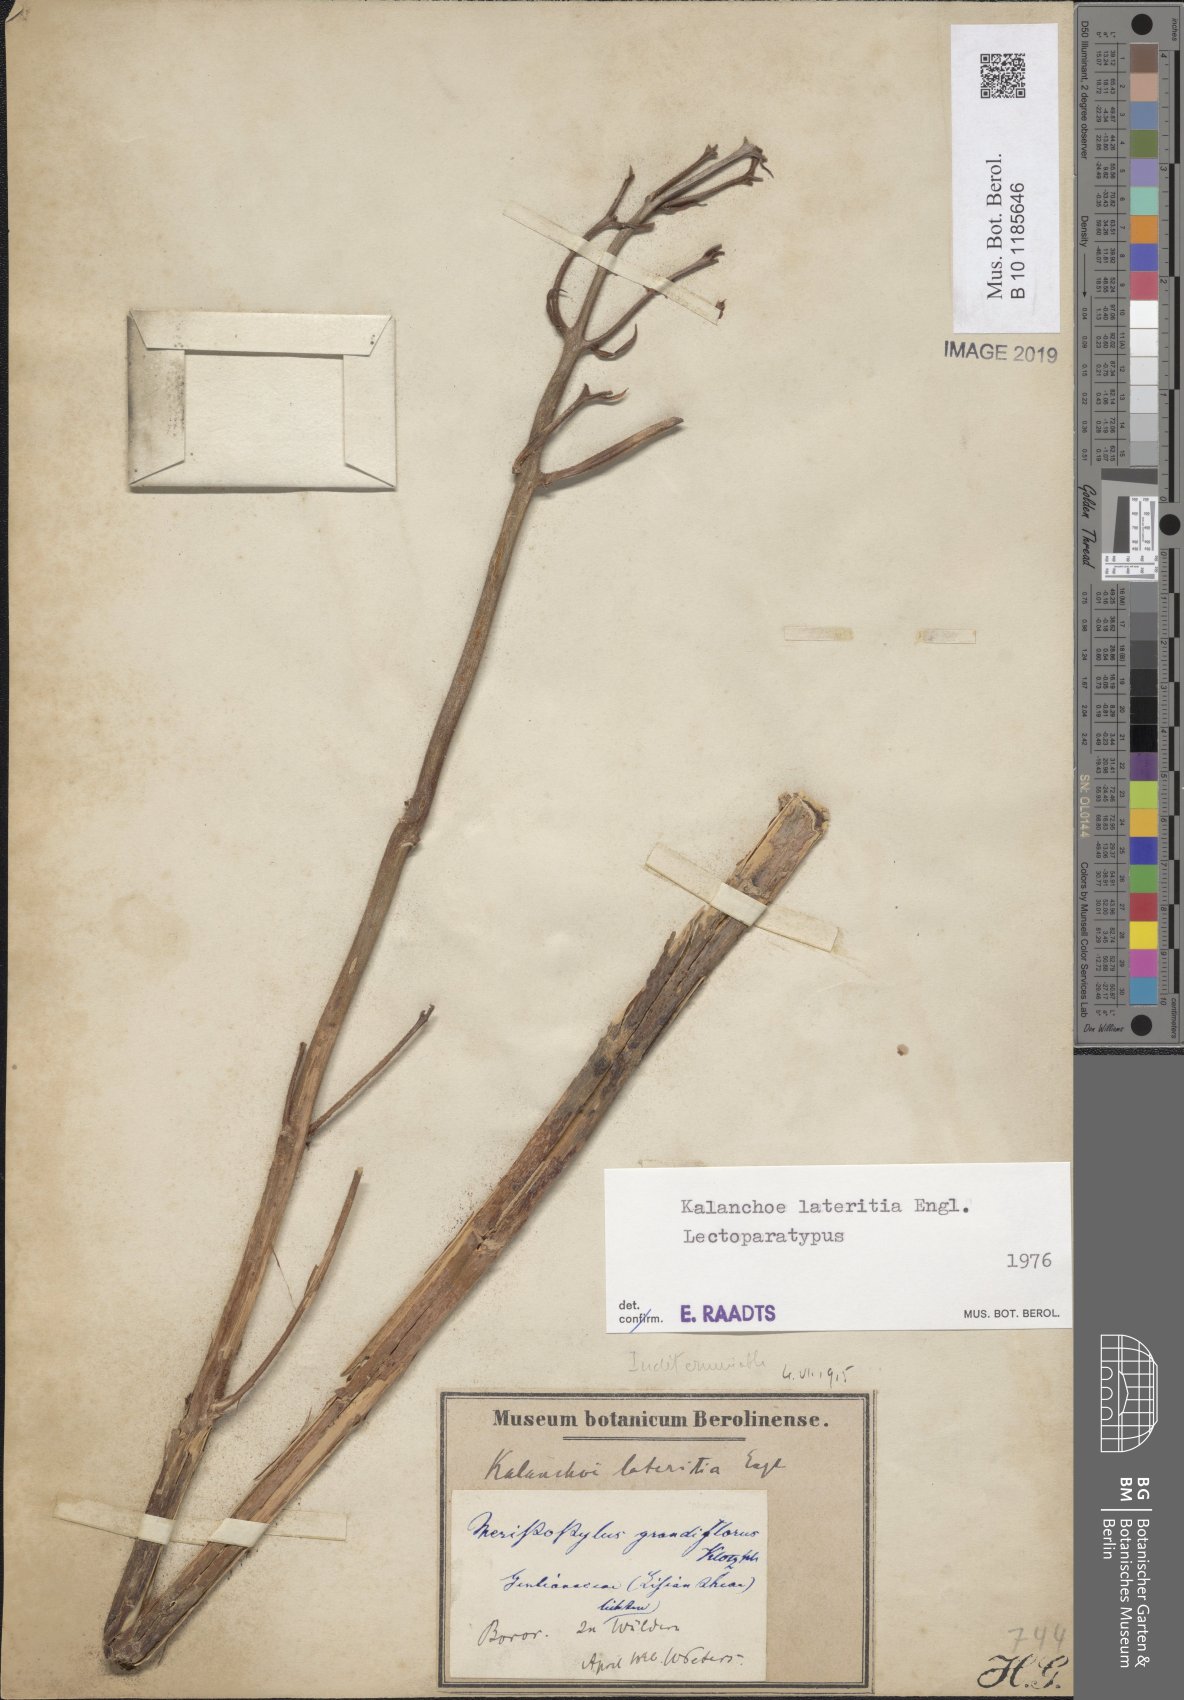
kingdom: Plantae
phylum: Tracheophyta
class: Magnoliopsida
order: Saxifragales
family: Crassulaceae
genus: Kalanchoe
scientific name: Kalanchoe lateritia
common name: Kalanchoe
